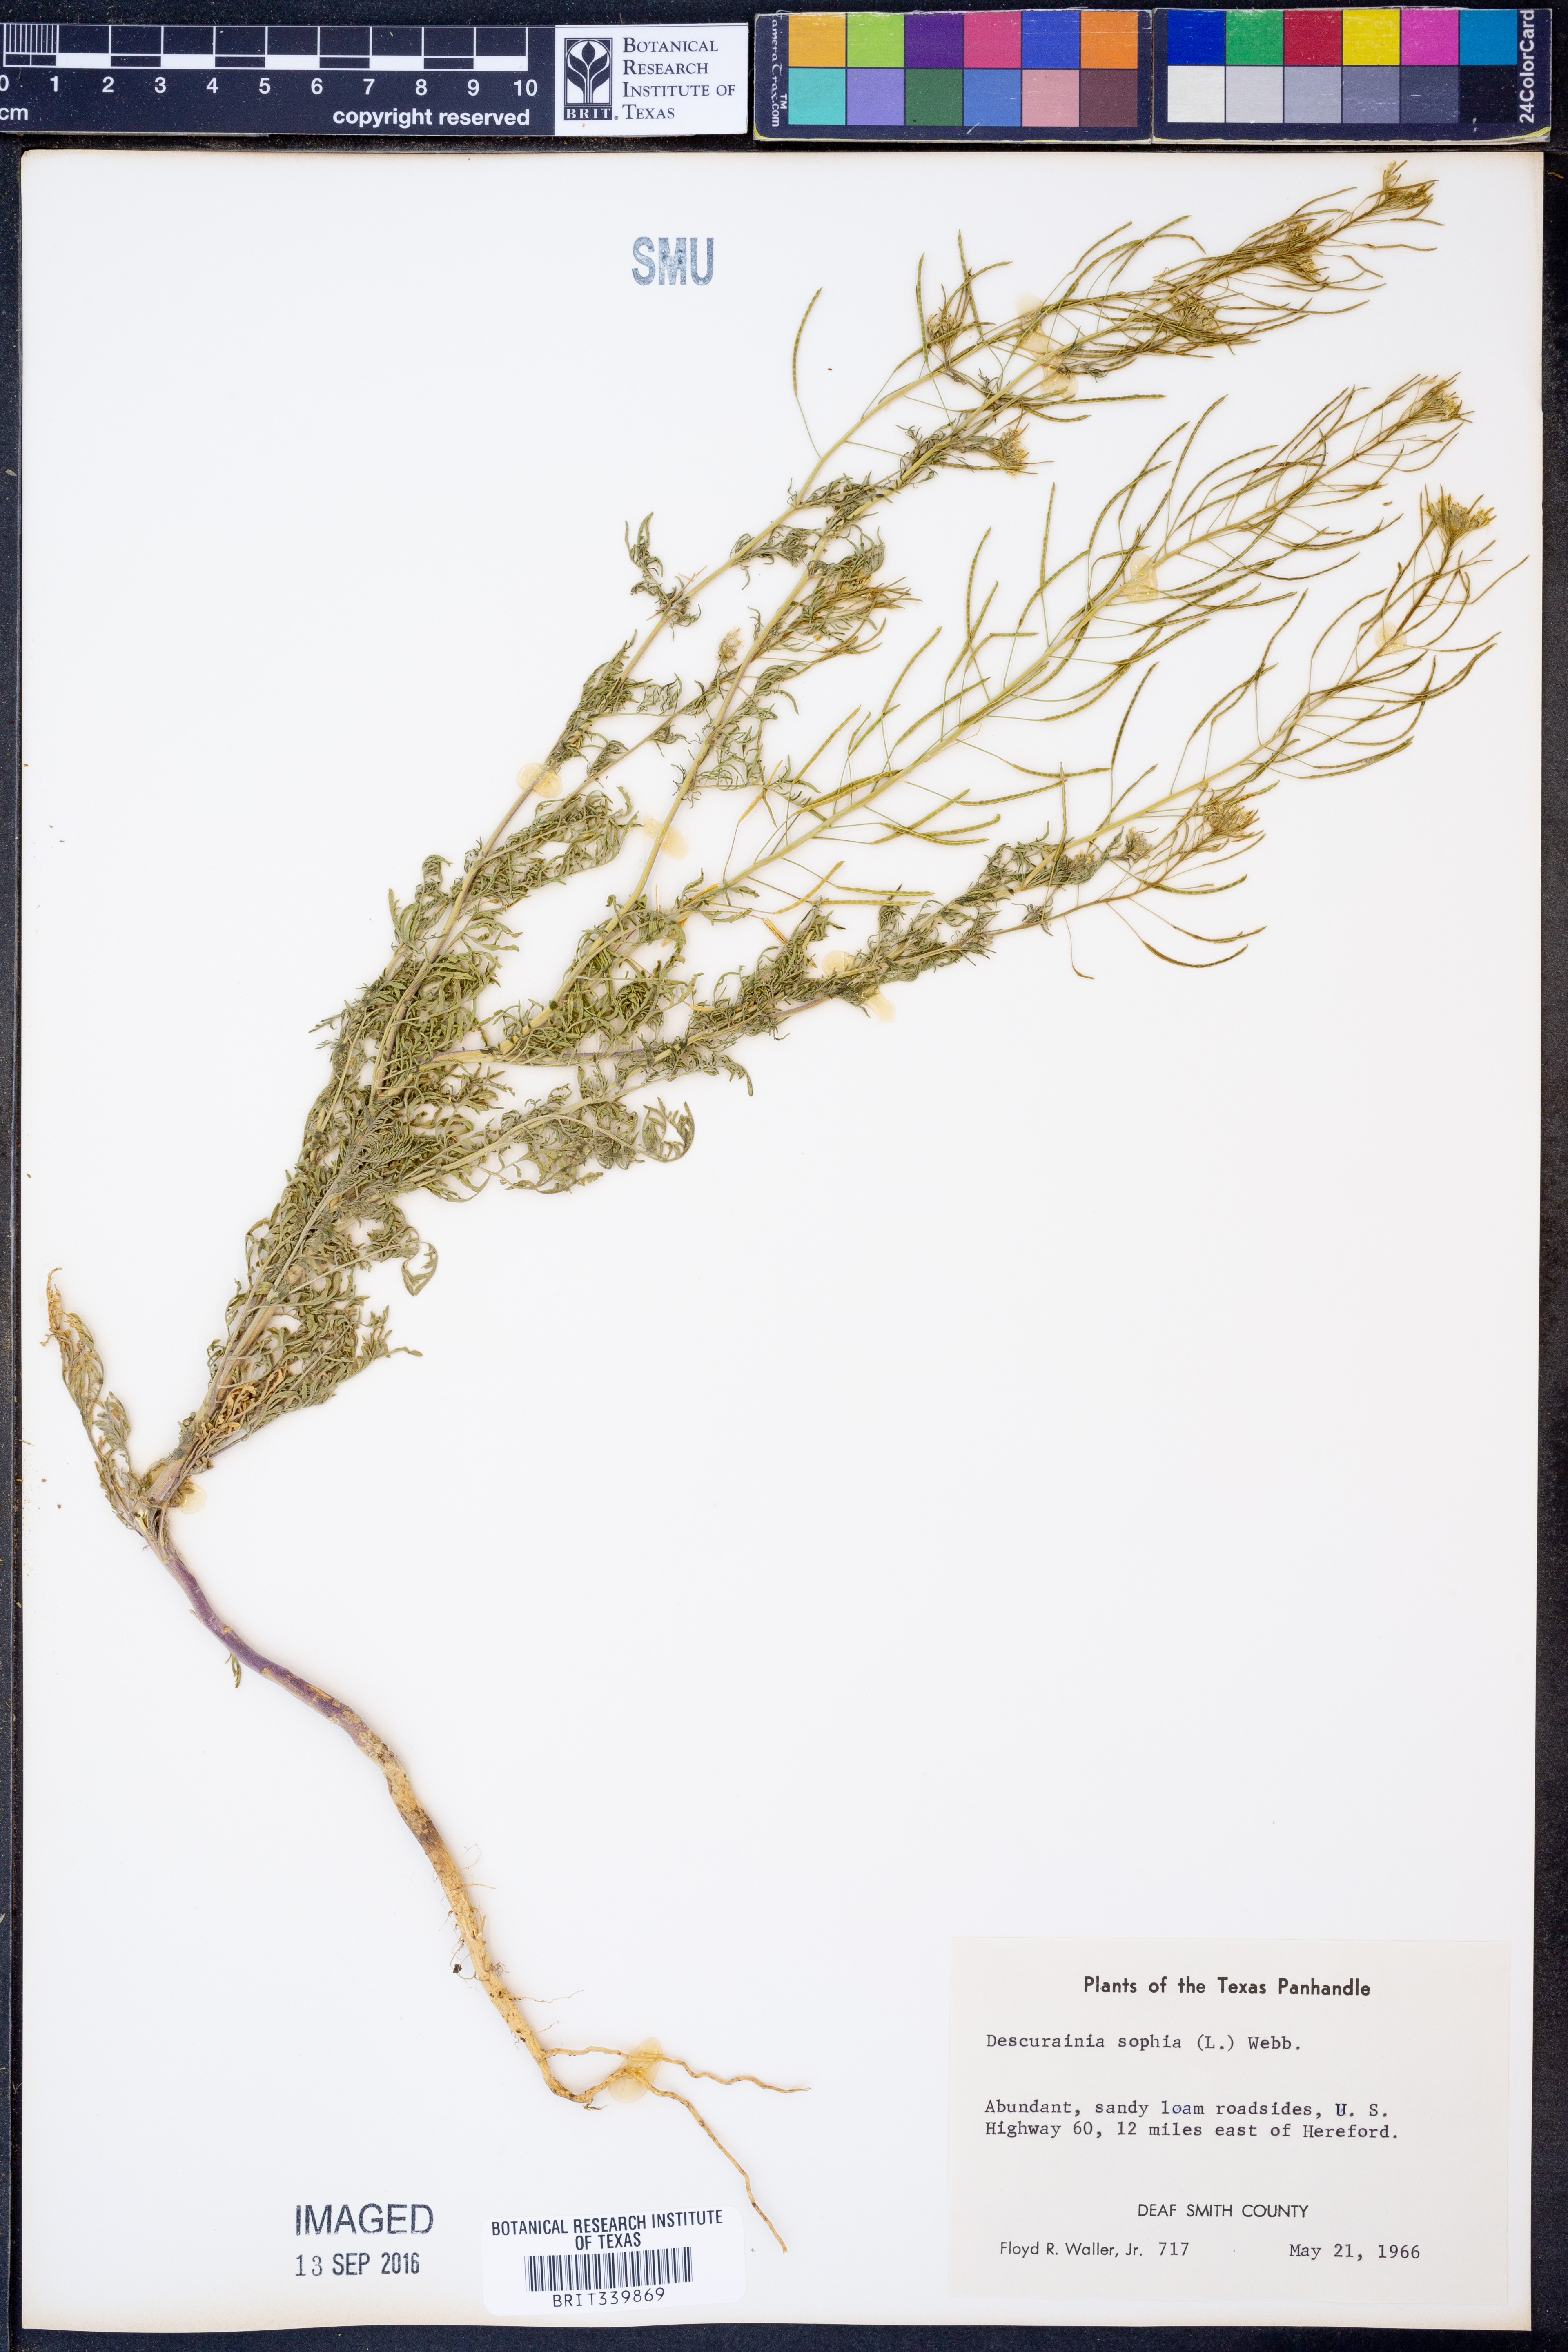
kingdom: Plantae
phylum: Tracheophyta
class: Magnoliopsida
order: Brassicales
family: Brassicaceae
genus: Descurainia
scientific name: Descurainia sophia
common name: Flixweed
